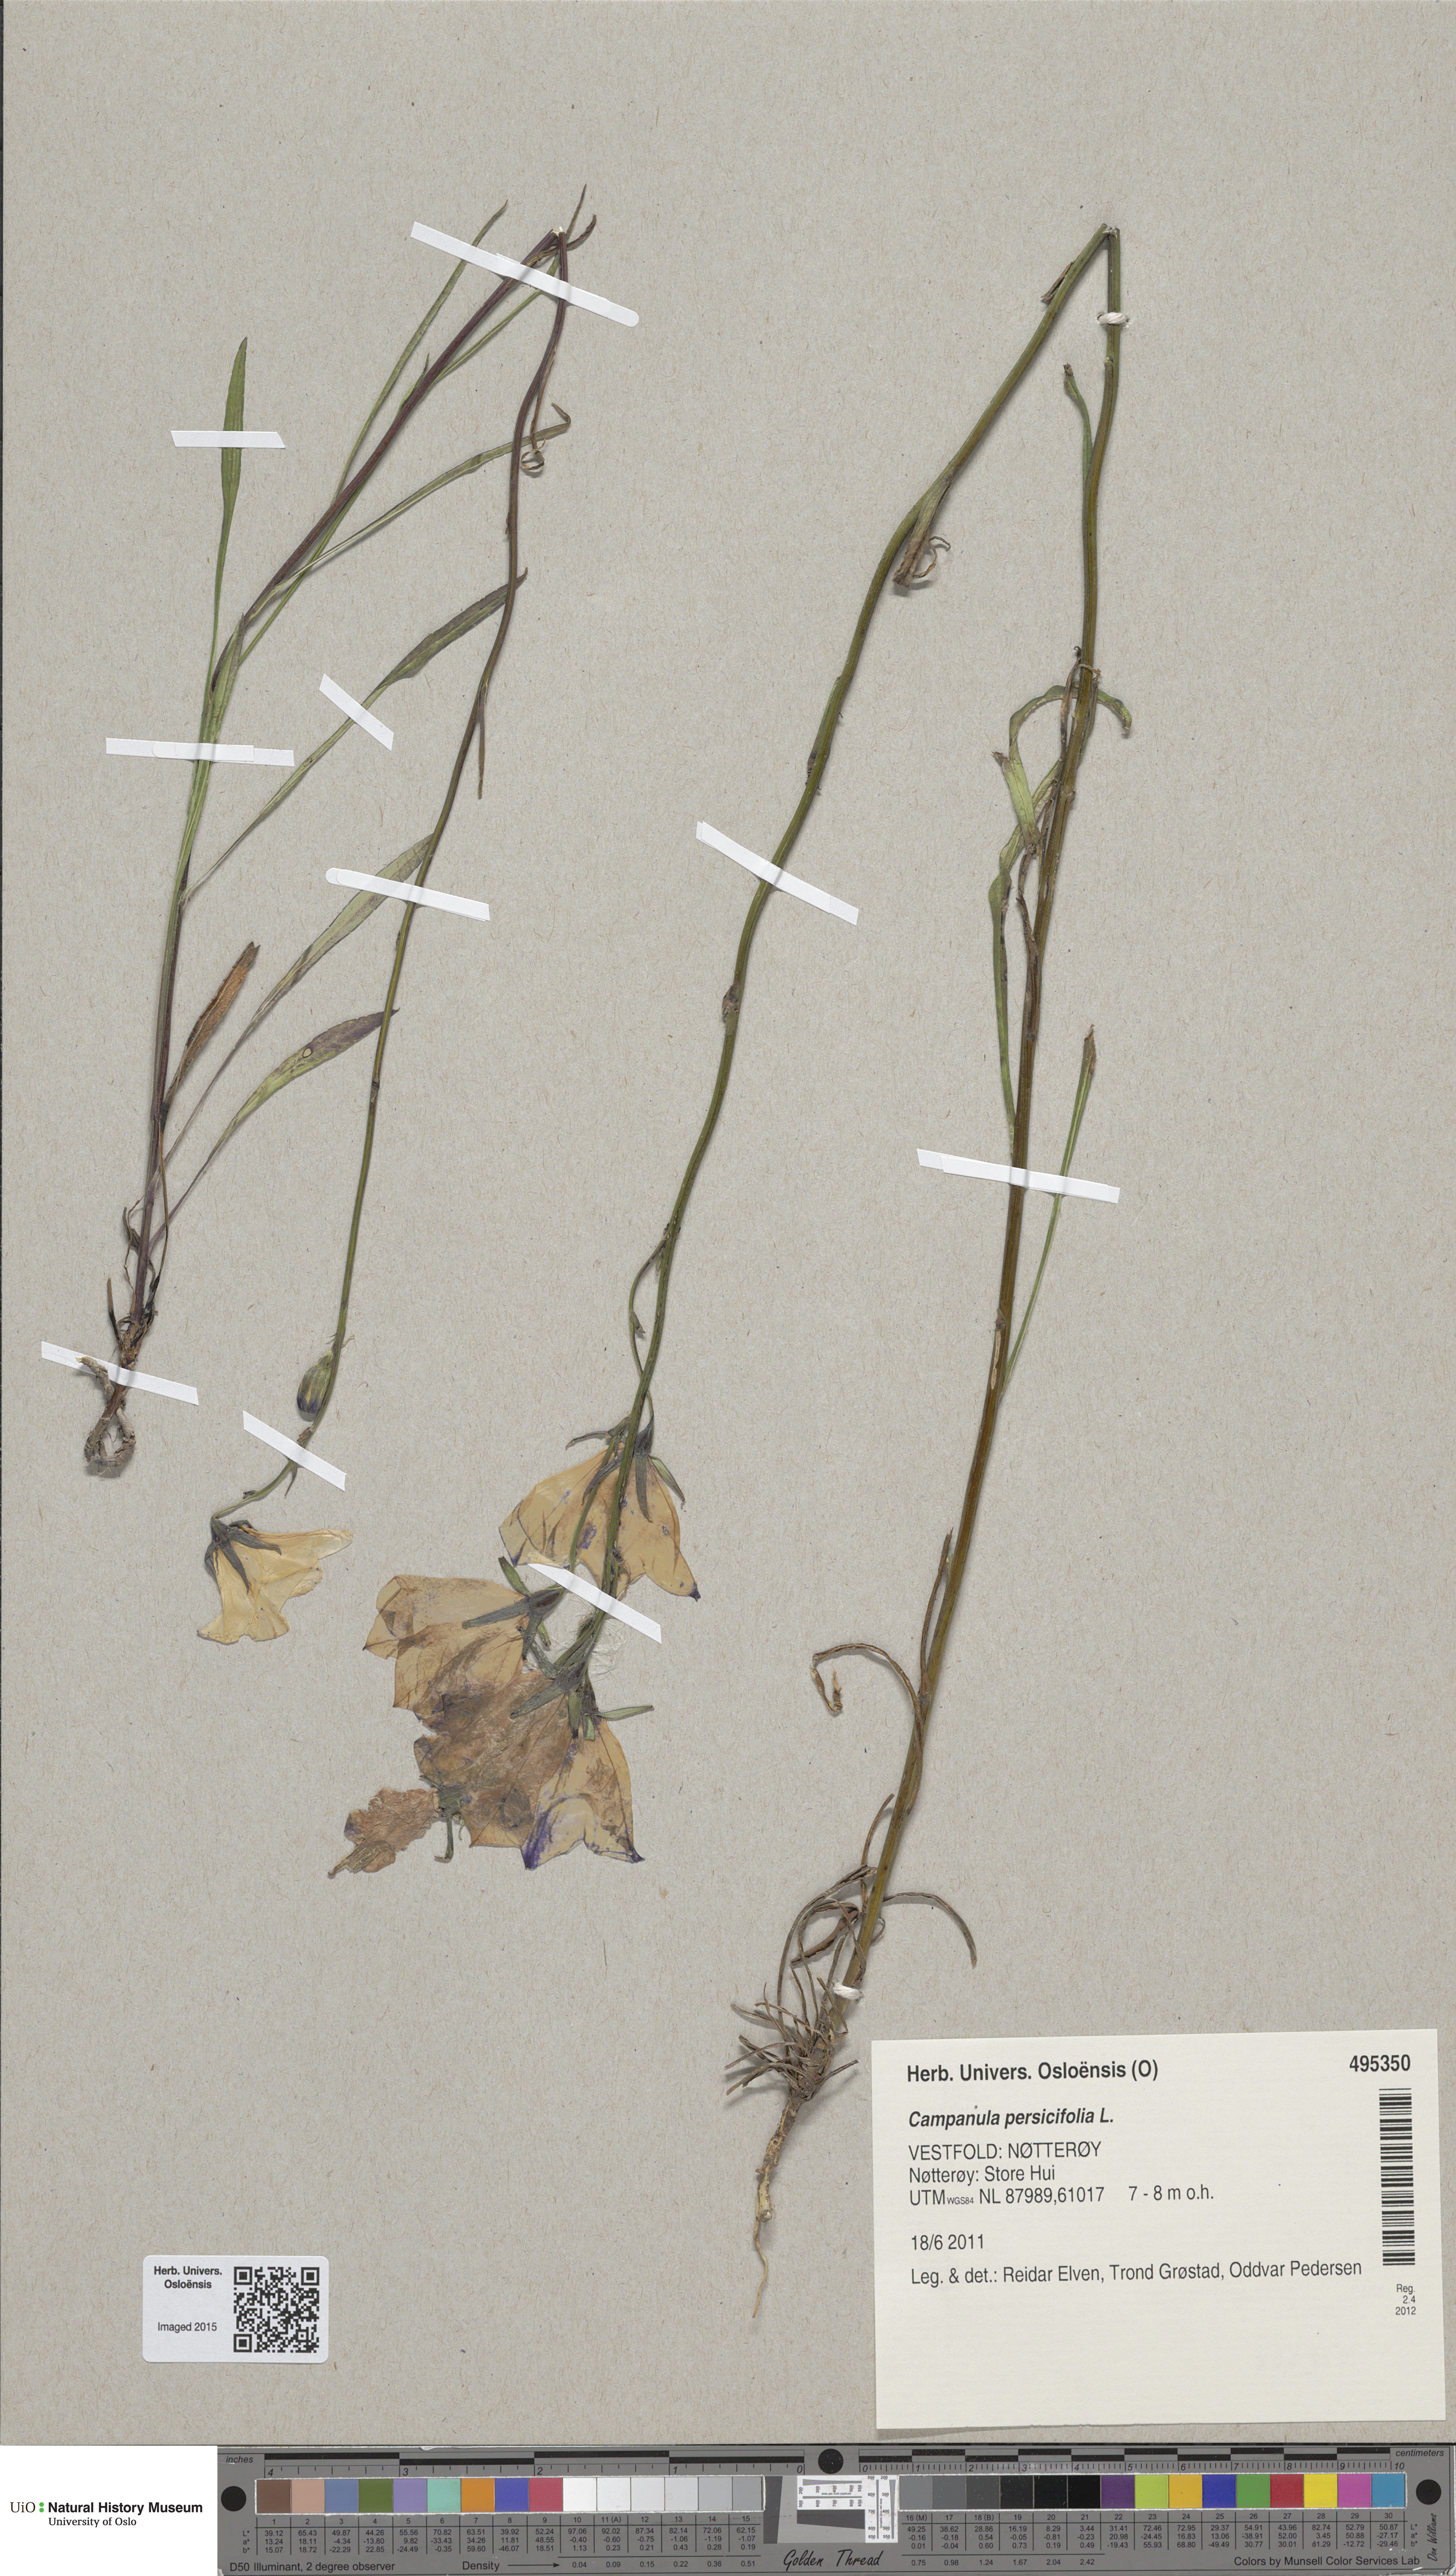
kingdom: Plantae
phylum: Tracheophyta
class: Magnoliopsida
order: Asterales
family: Campanulaceae
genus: Campanula
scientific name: Campanula persicifolia
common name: Peach-leaved bellflower
